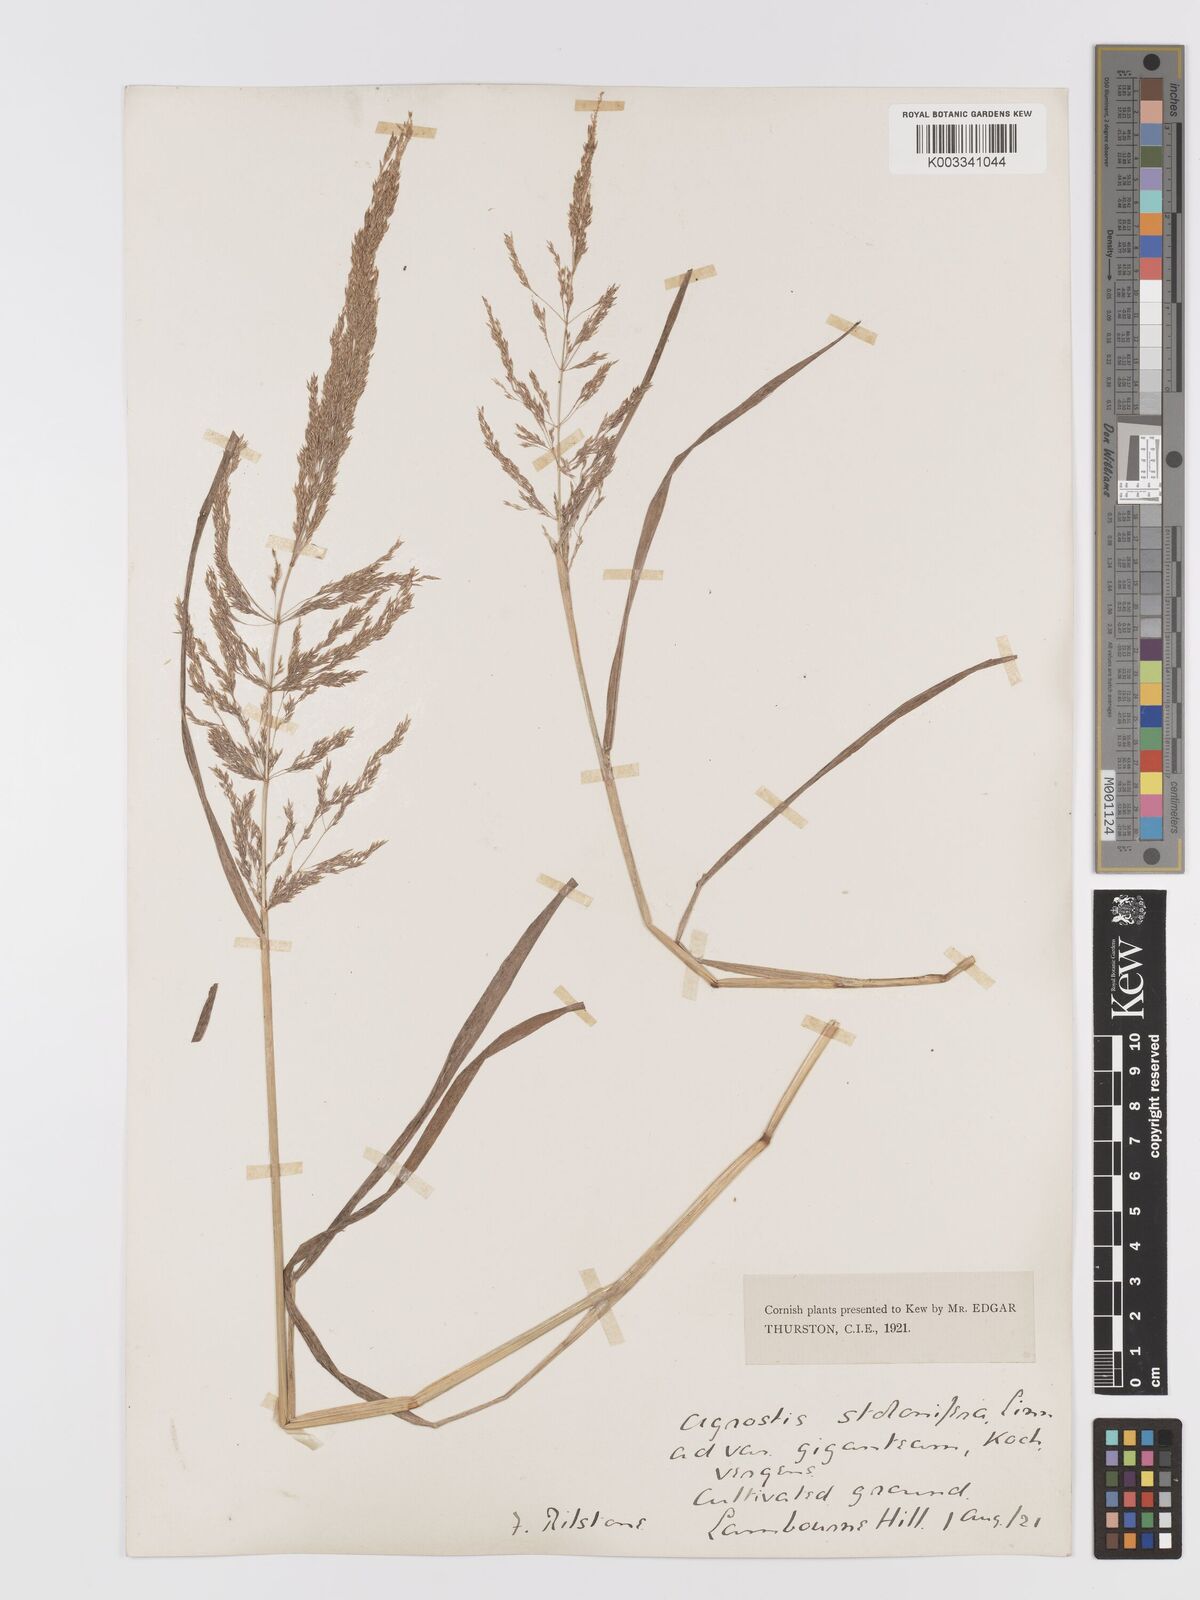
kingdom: Plantae
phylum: Tracheophyta
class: Liliopsida
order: Poales
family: Poaceae
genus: Agrostis
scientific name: Agrostis gigantea
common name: Black bent
